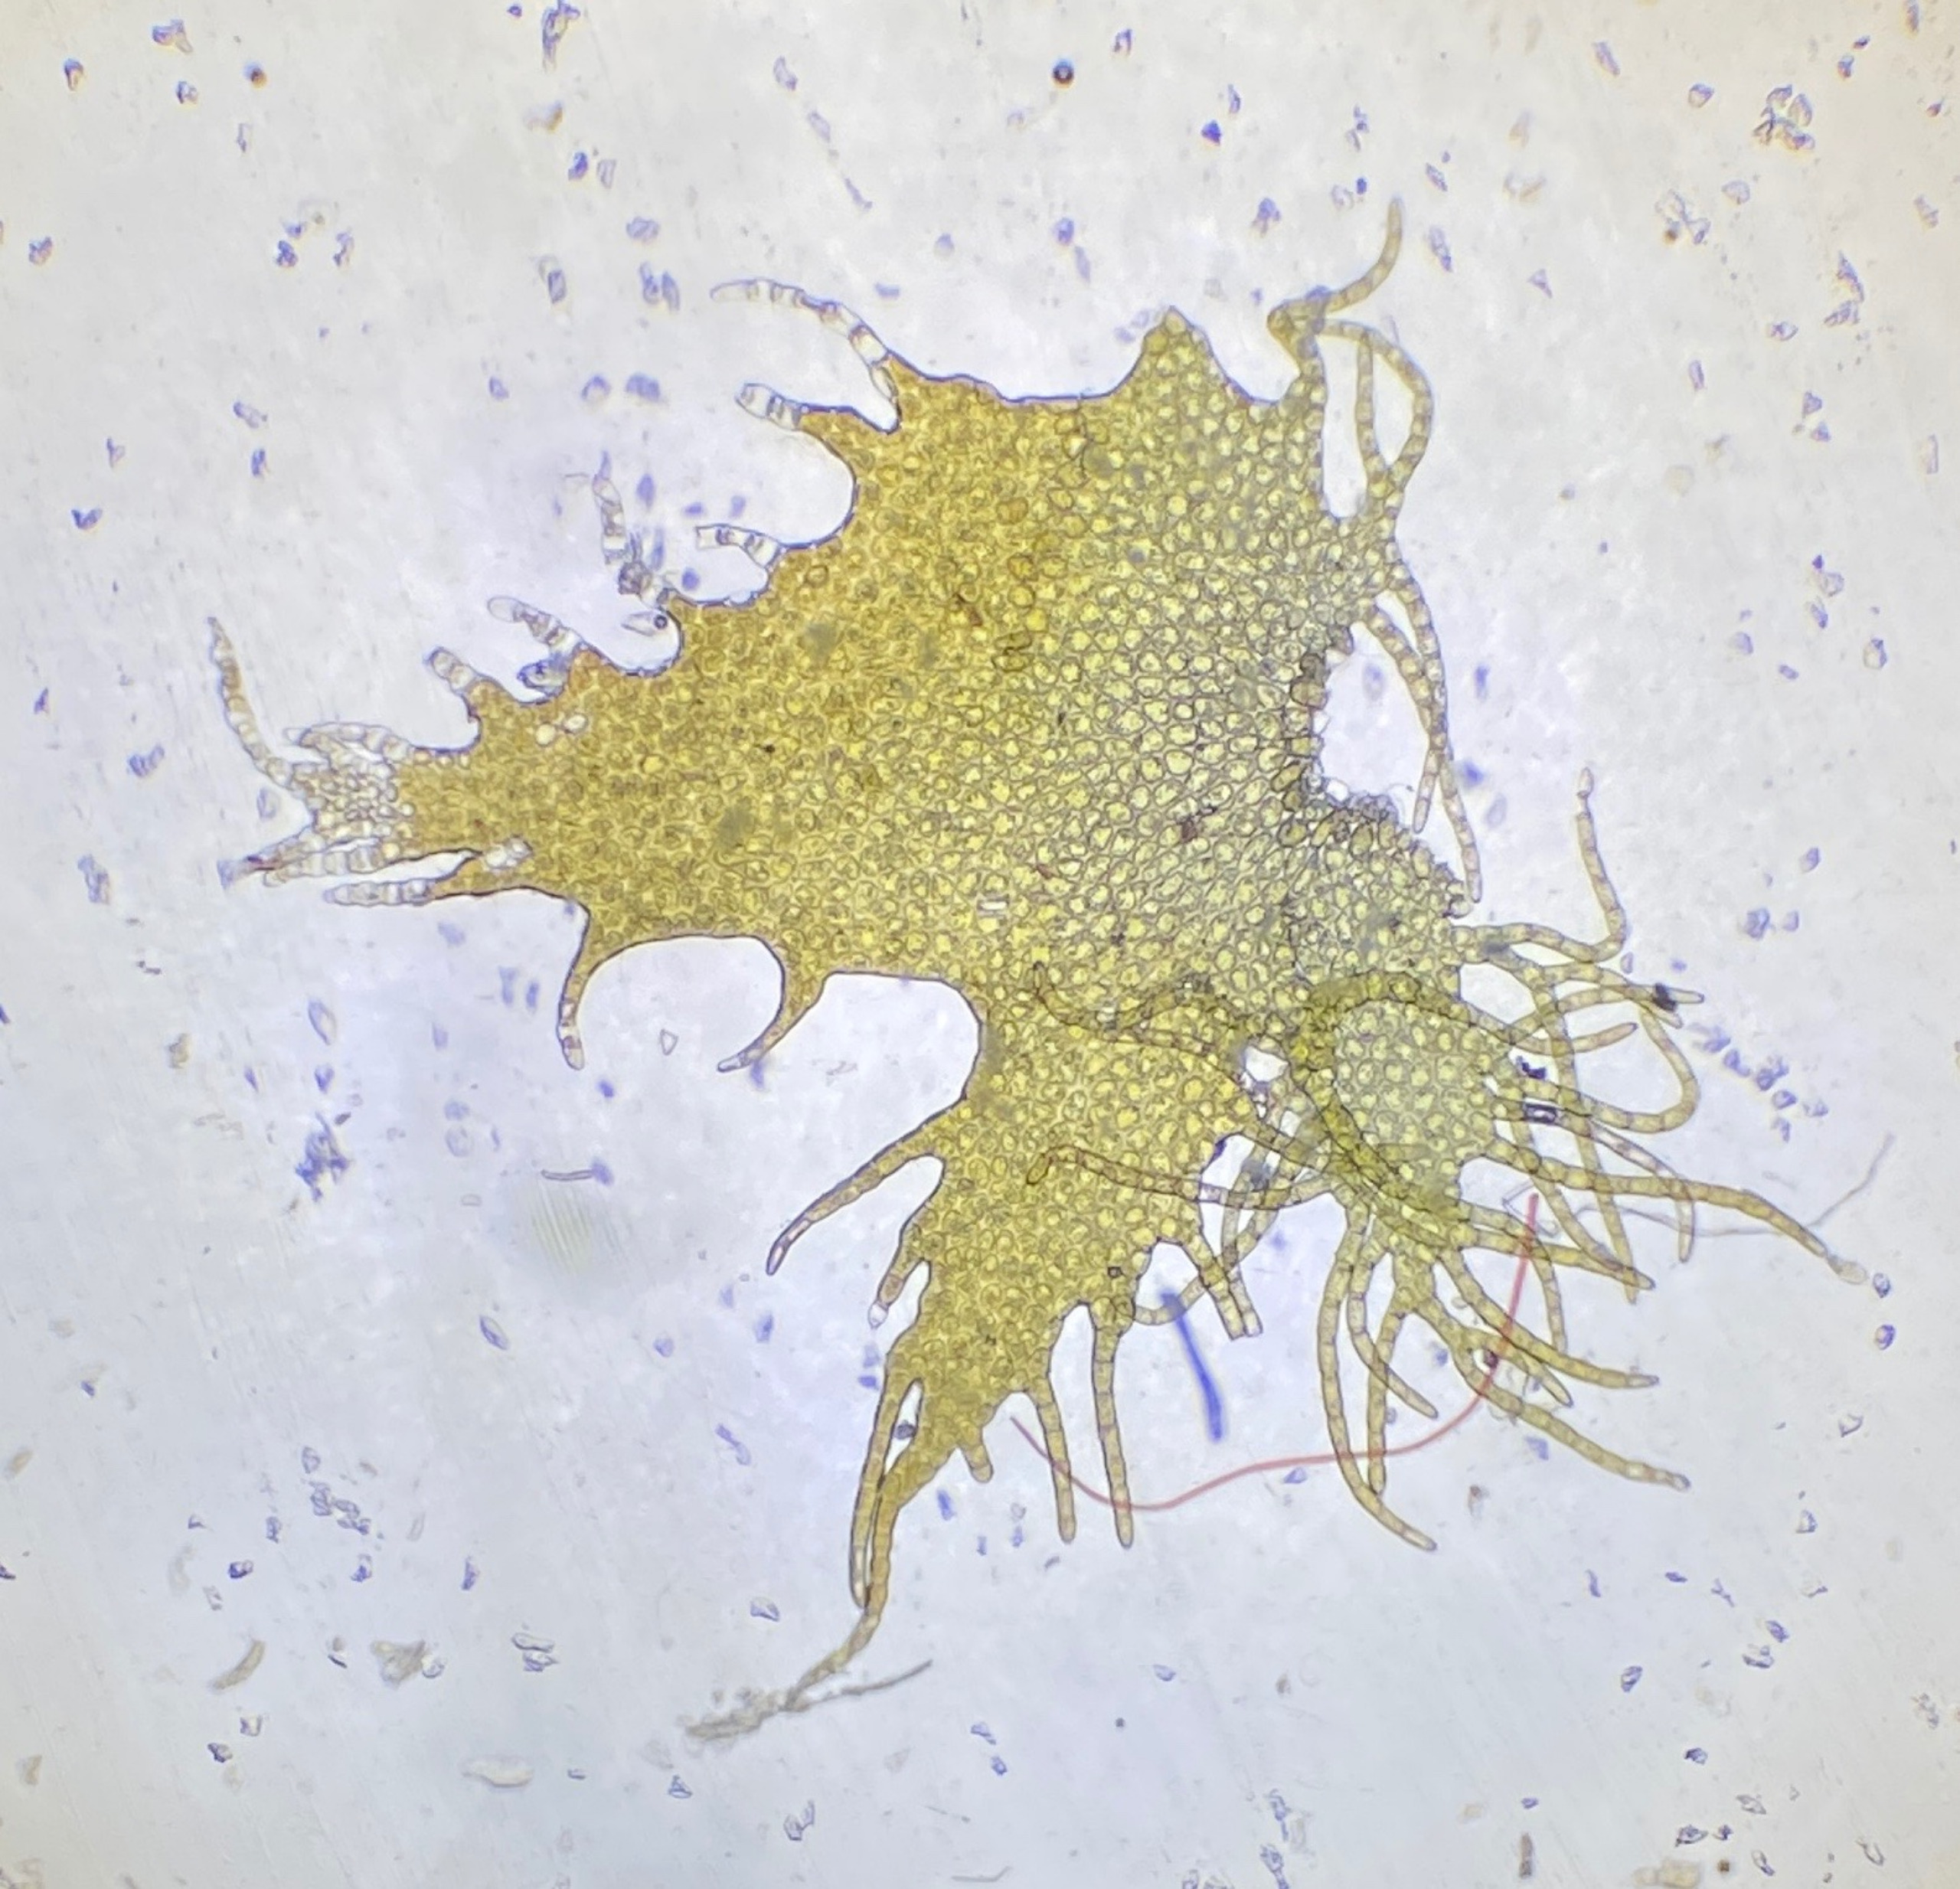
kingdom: Plantae
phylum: Marchantiophyta
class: Jungermanniopsida
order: Ptilidiales
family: Ptilidiaceae
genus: Ptilidium
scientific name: Ptilidium ciliare
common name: Almindelig frynsemos
